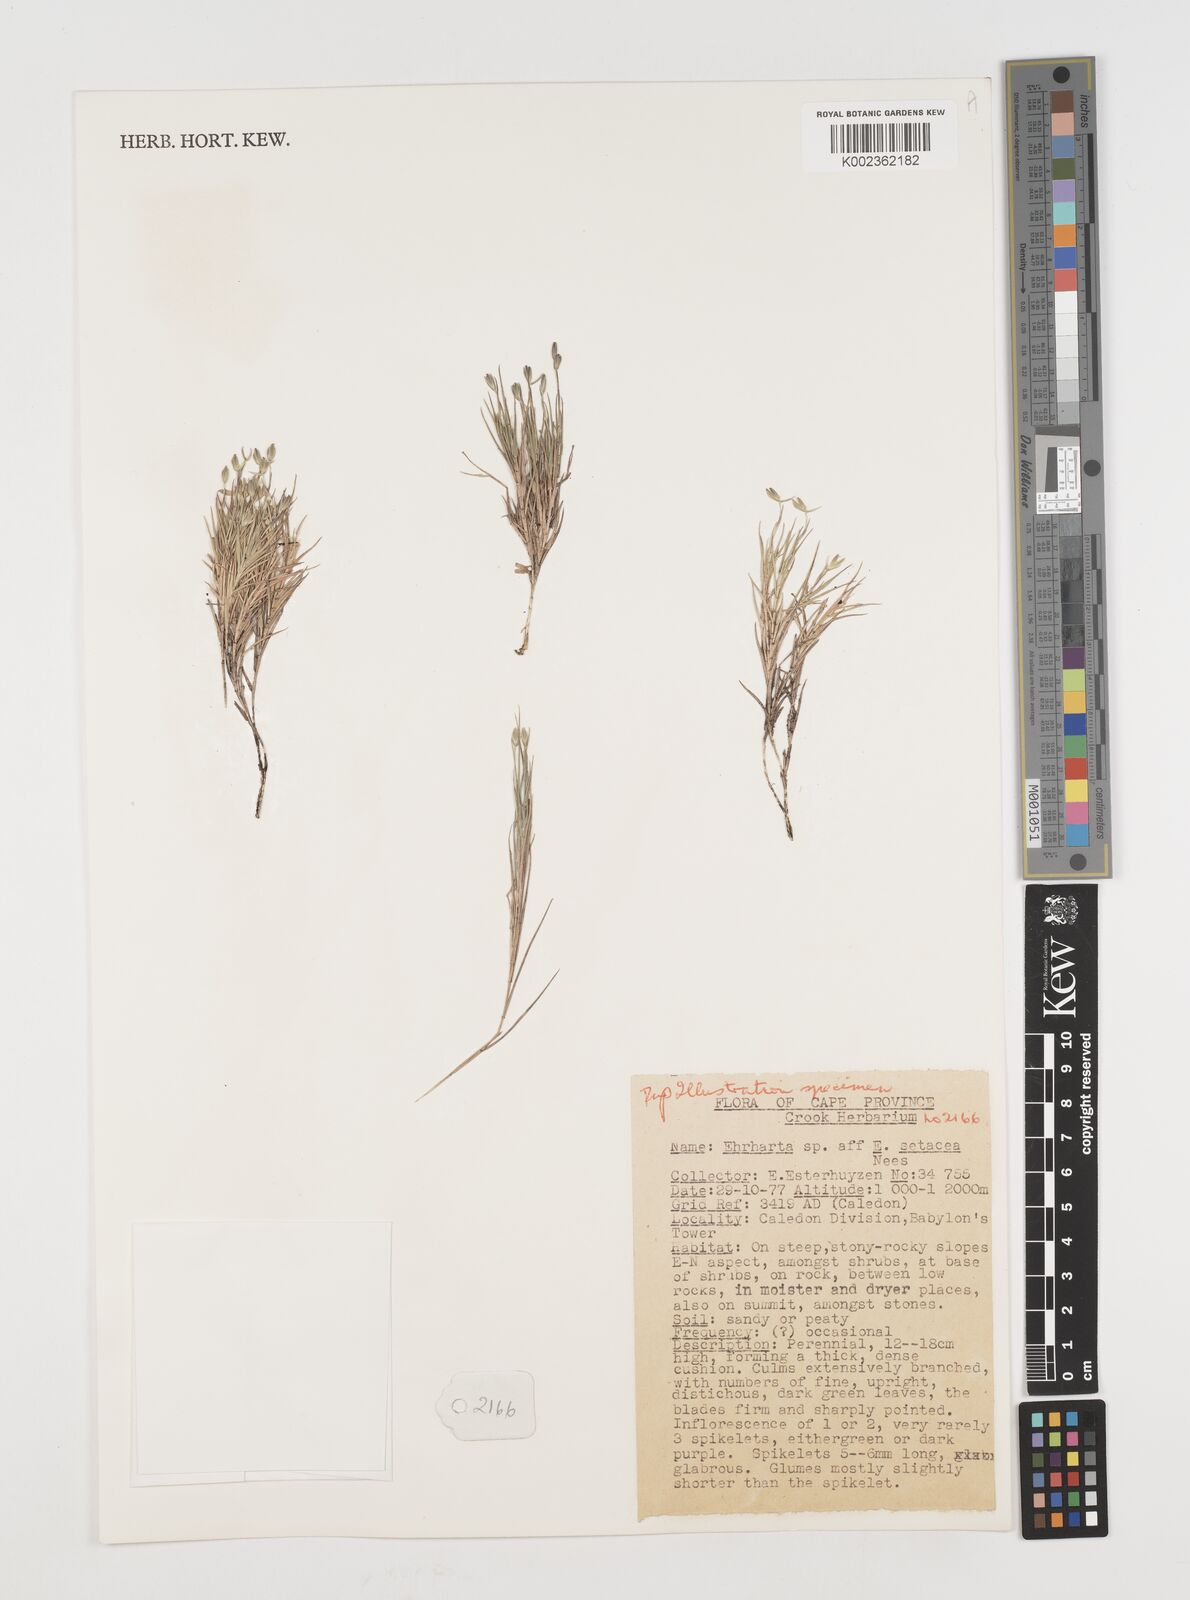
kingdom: Plantae
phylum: Tracheophyta
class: Liliopsida
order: Poales
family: Poaceae
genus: Ehrharta
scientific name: Ehrharta
